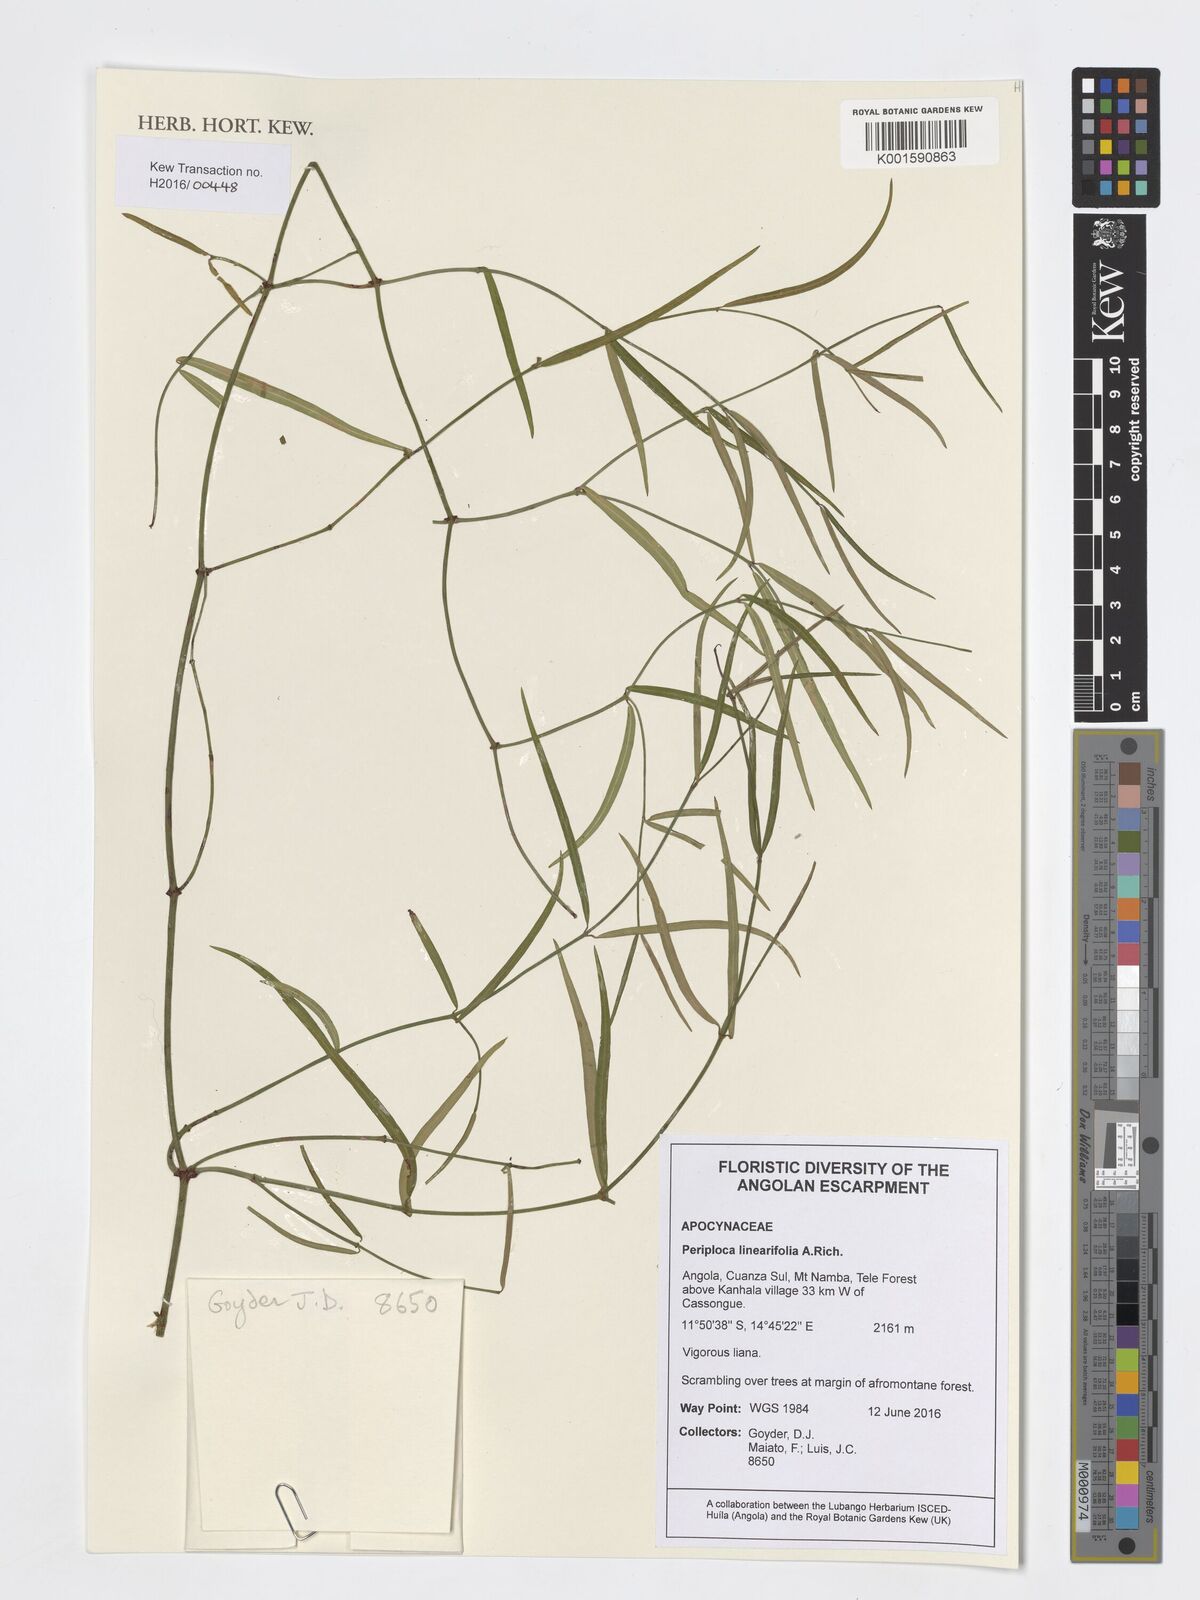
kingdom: Plantae
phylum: Tracheophyta
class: Magnoliopsida
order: Gentianales
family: Apocynaceae
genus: Periploca
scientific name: Periploca linearifolia
